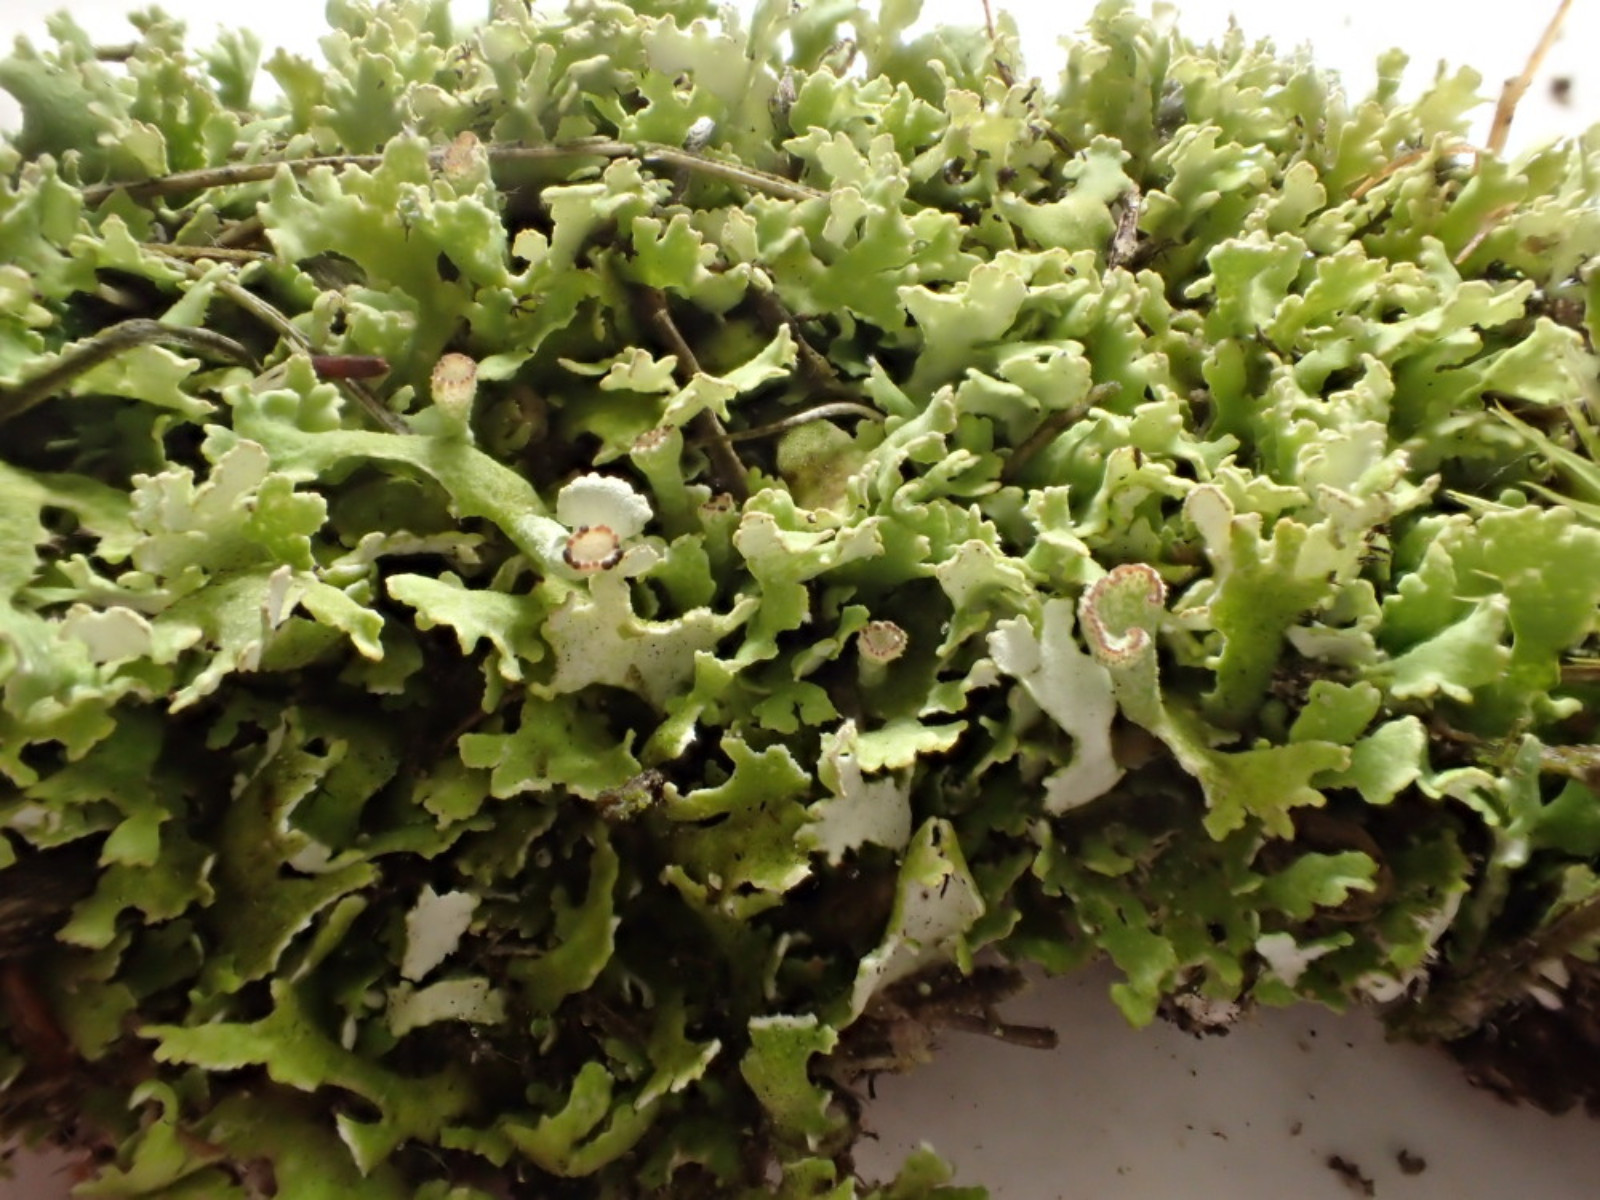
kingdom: Fungi
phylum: Ascomycota
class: Lecanoromycetes
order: Lecanorales
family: Cladoniaceae
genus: Cladonia
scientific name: Cladonia foliacea
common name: fliget bægerlav
